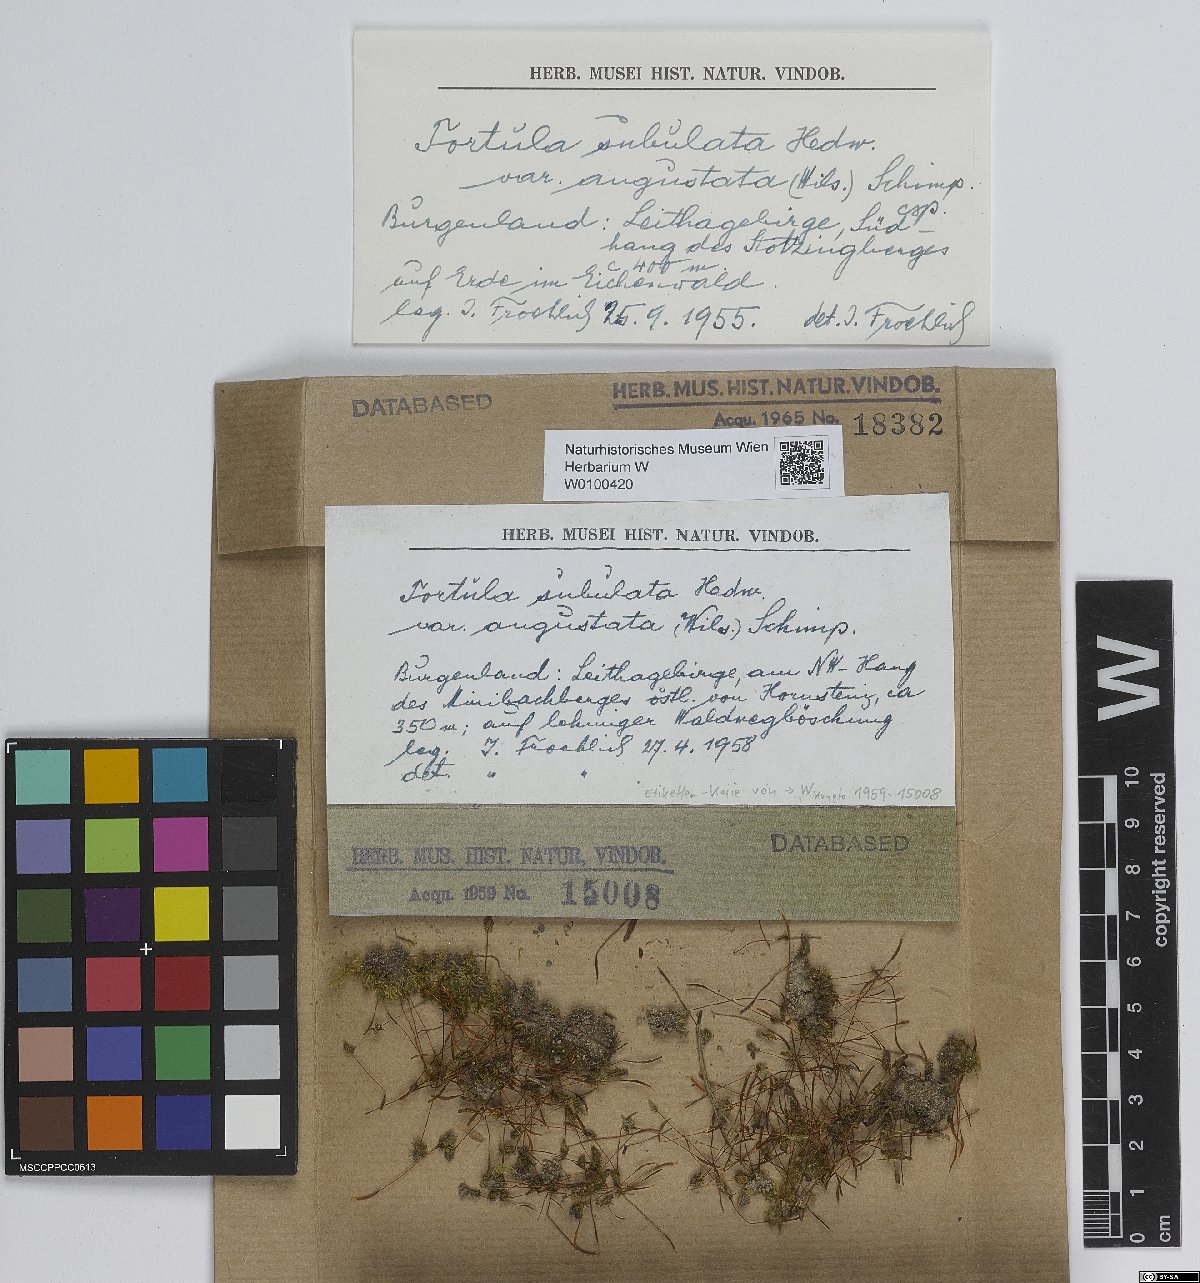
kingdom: Plantae
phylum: Bryophyta
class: Bryopsida
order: Pottiales
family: Pottiaceae
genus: Tortula
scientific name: Tortula schimperi
